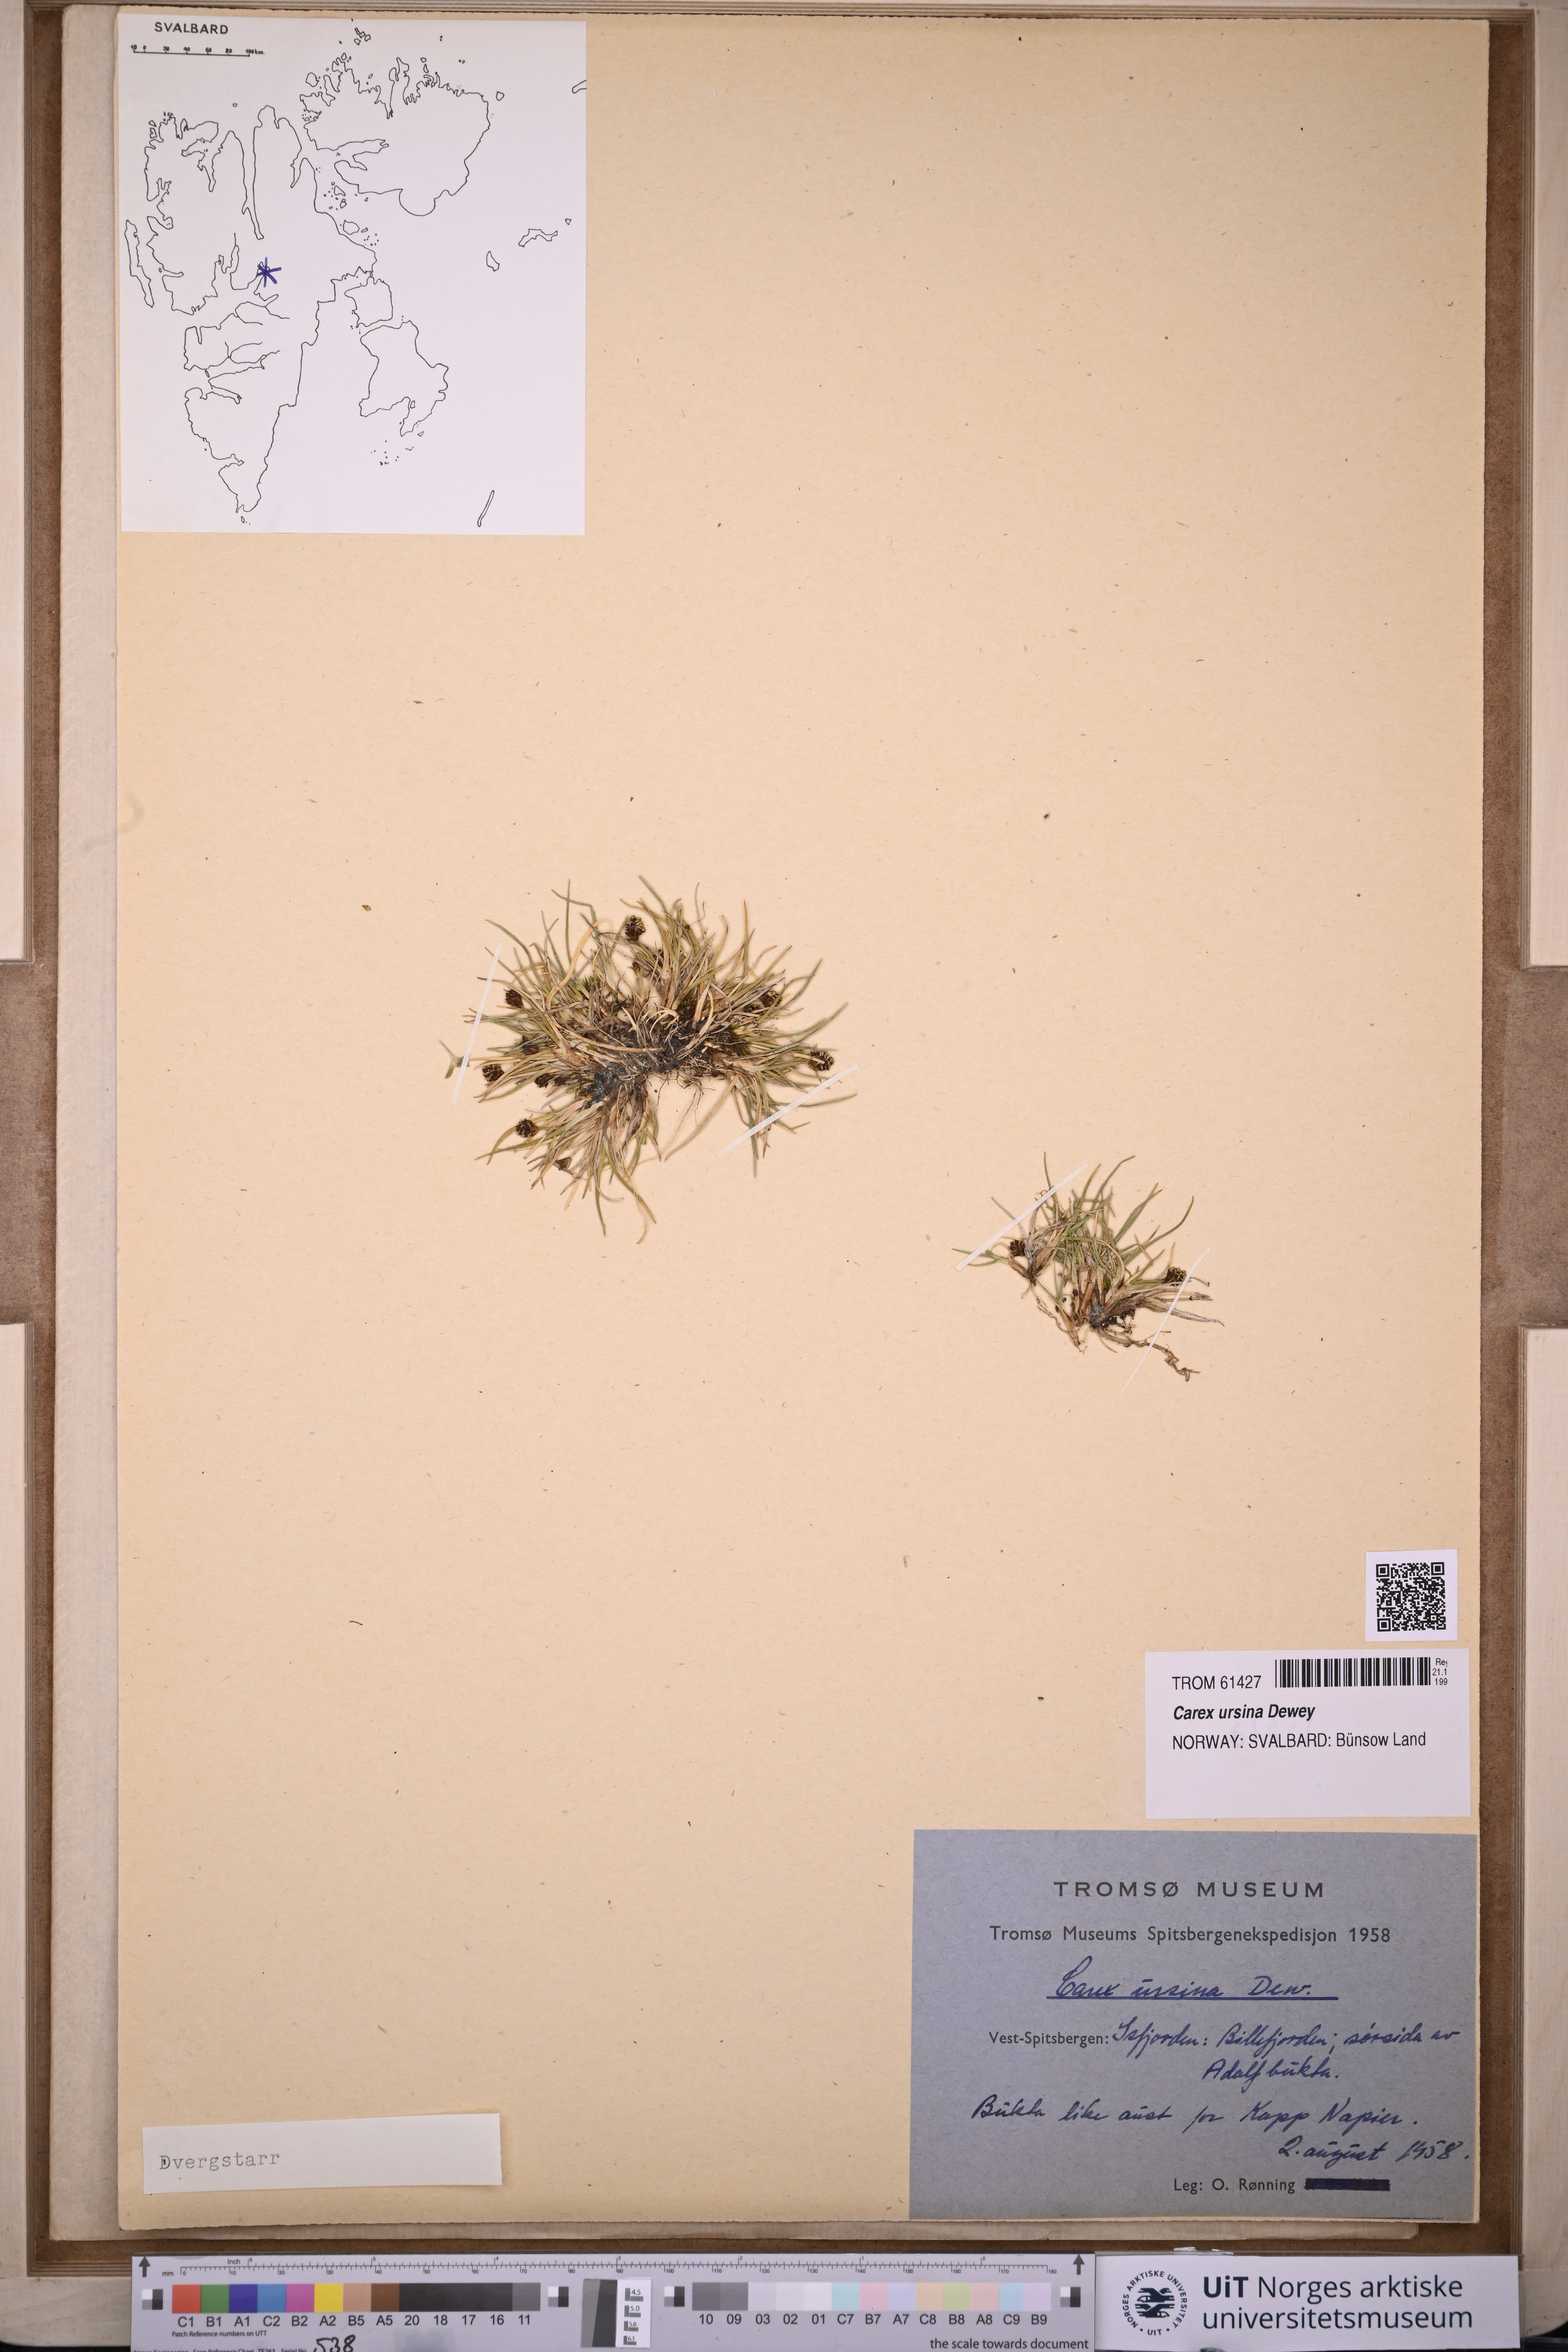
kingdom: Plantae
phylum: Tracheophyta
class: Liliopsida
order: Poales
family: Cyperaceae
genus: Carex
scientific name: Carex ursina
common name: Bear sedge
